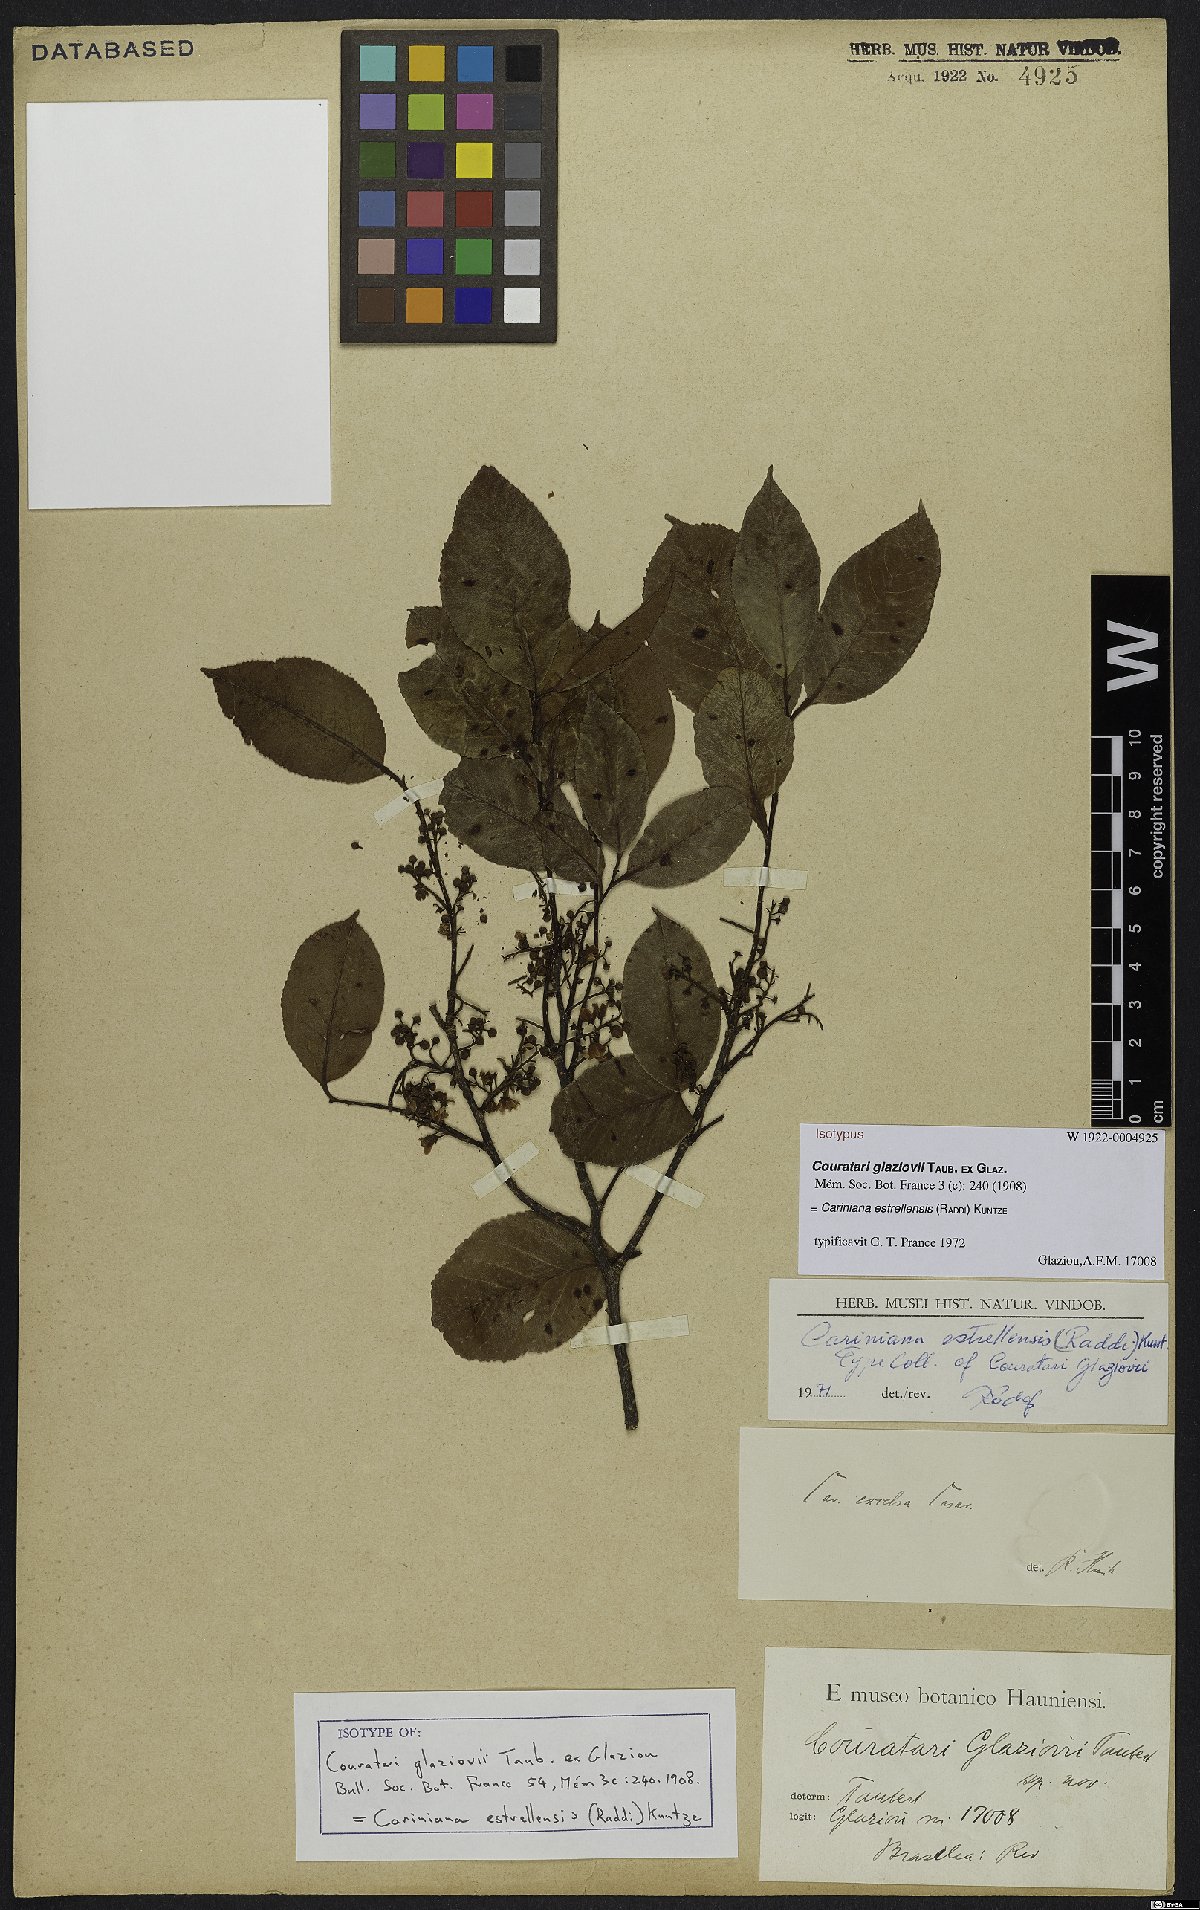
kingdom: Plantae
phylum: Tracheophyta
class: Magnoliopsida
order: Ericales
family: Lecythidaceae
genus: Cariniana
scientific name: Cariniana estrellensis
